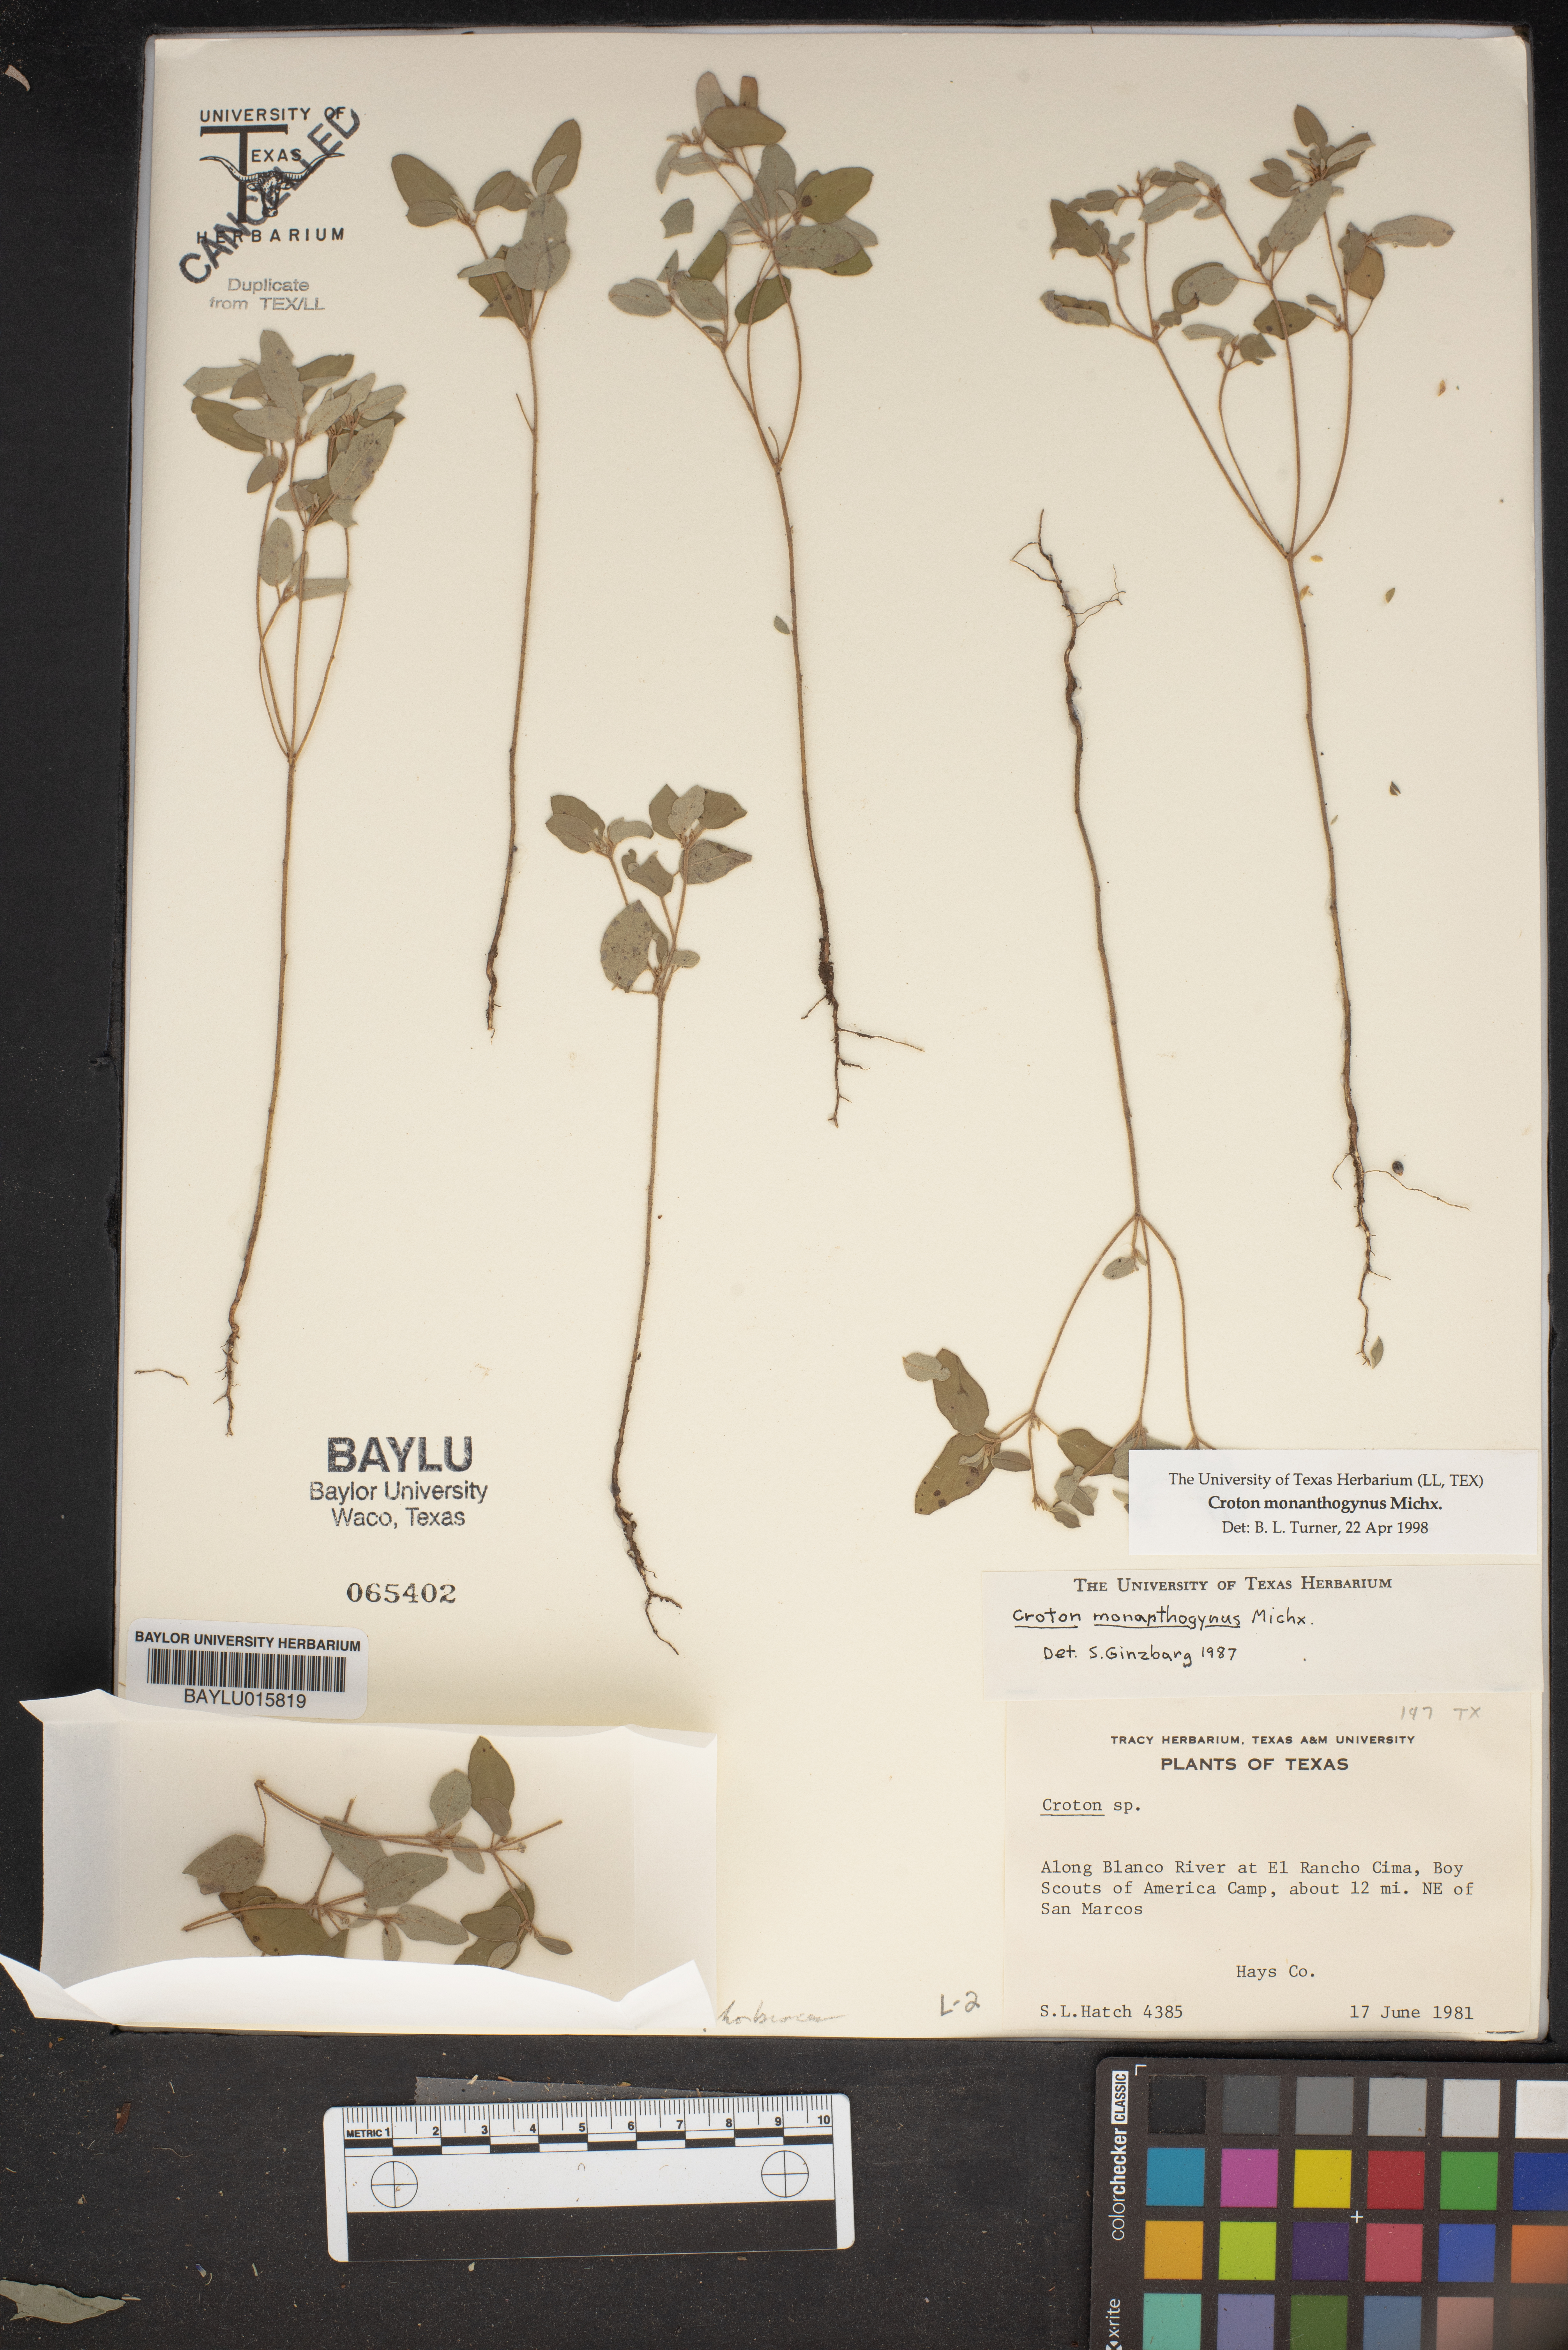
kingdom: Plantae
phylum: Tracheophyta
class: Magnoliopsida
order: Malpighiales
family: Euphorbiaceae
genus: Croton
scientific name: Croton monanthogynus
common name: One-seed croton
